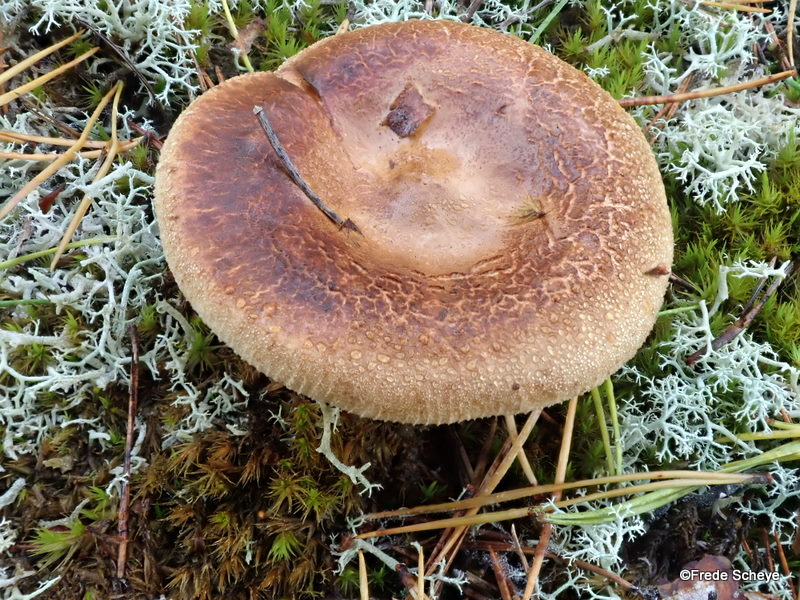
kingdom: Fungi
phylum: Basidiomycota
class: Agaricomycetes
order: Boletales
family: Paxillaceae
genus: Paxillus
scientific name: Paxillus involutus
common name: almindelig netbladhat
